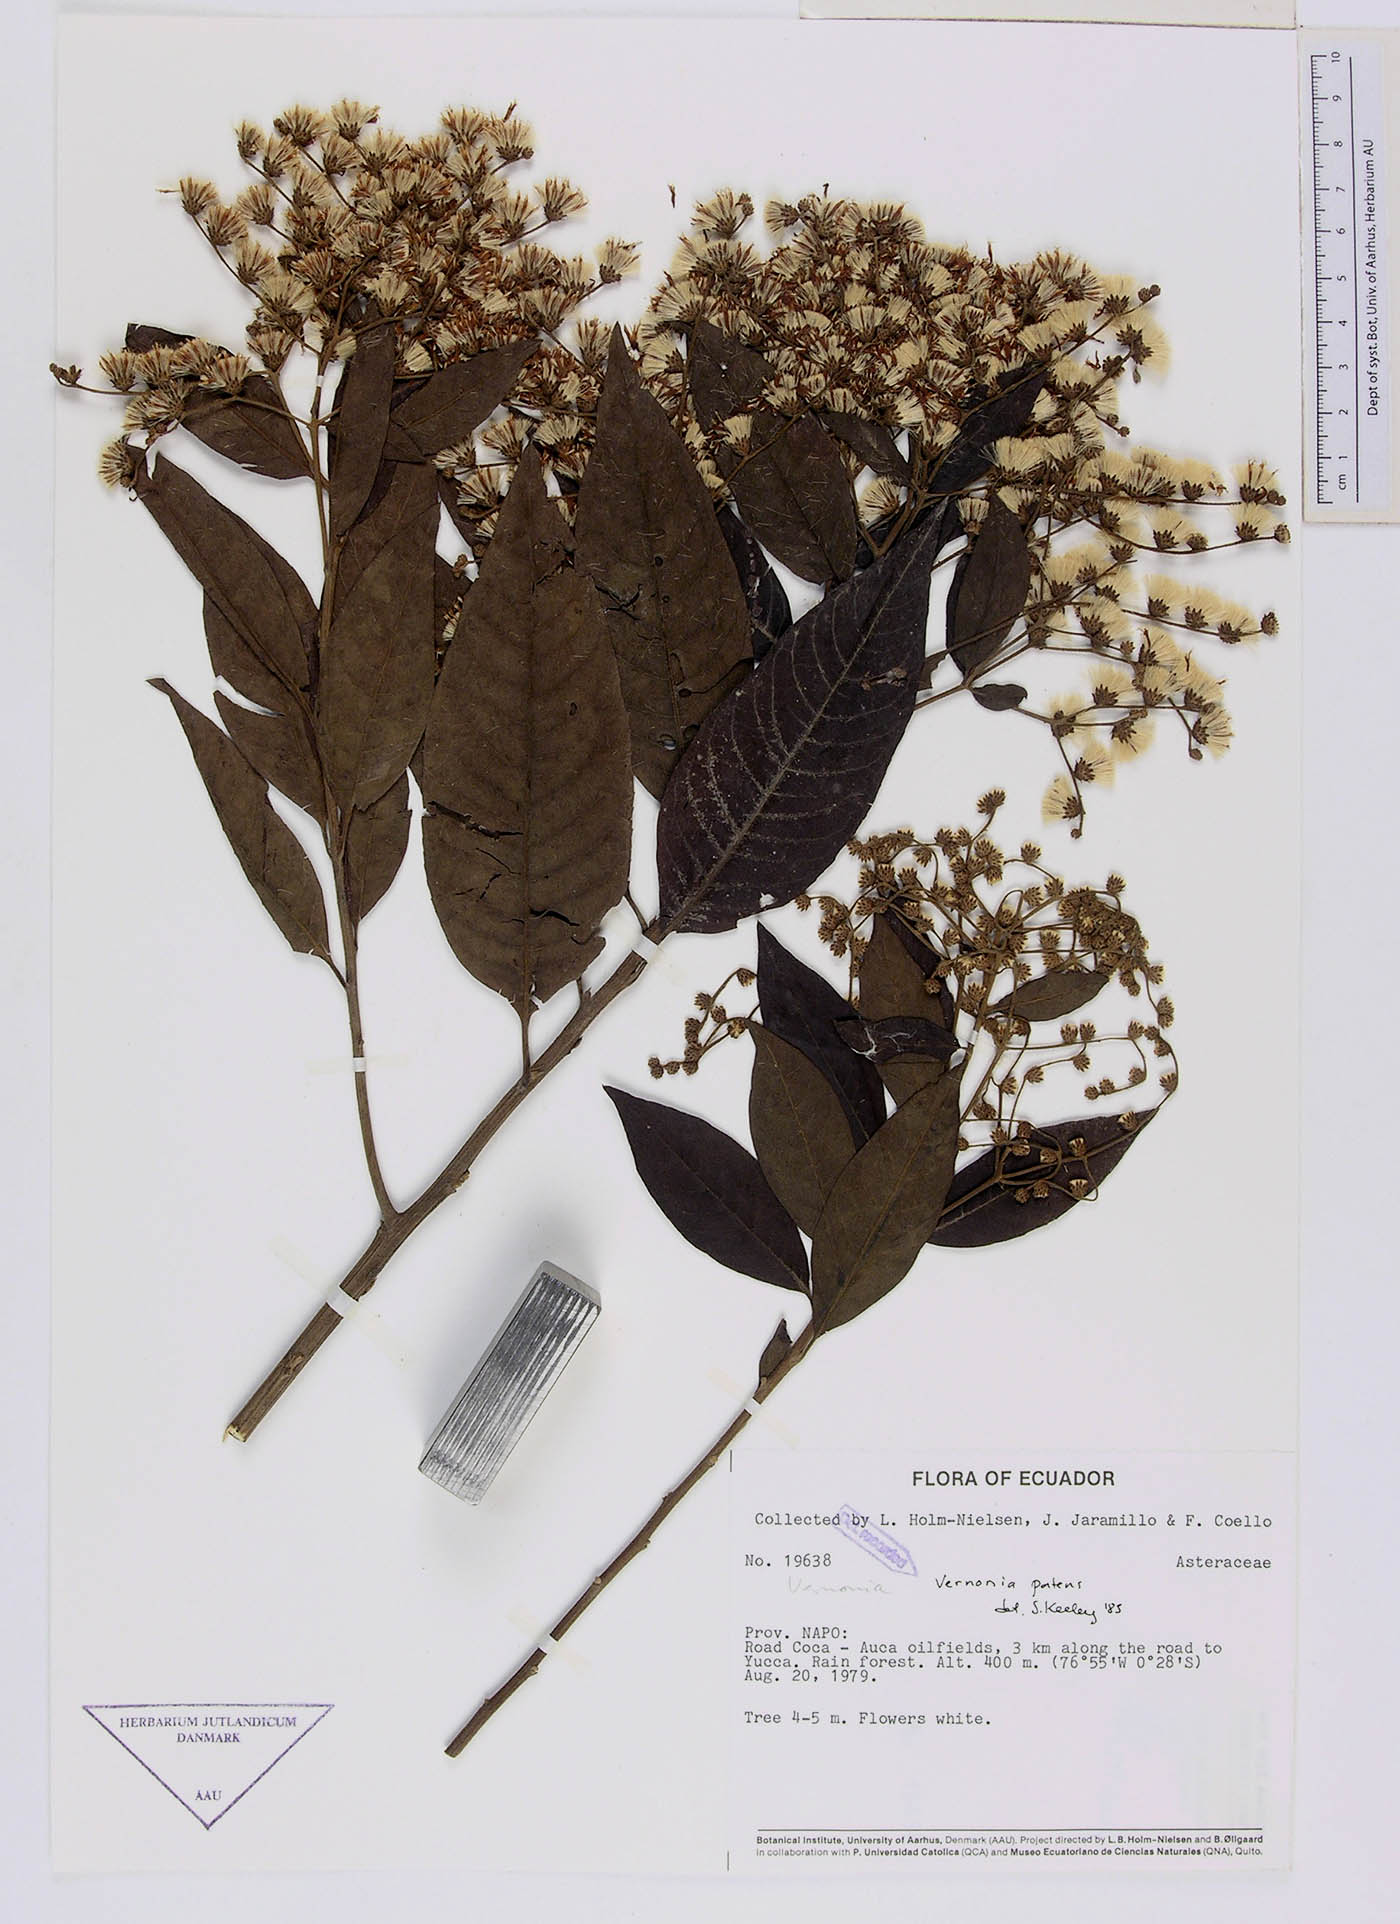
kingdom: Plantae
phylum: Tracheophyta
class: Magnoliopsida
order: Asterales
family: Asteraceae
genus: Vernonanthura
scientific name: Vernonanthura patens
